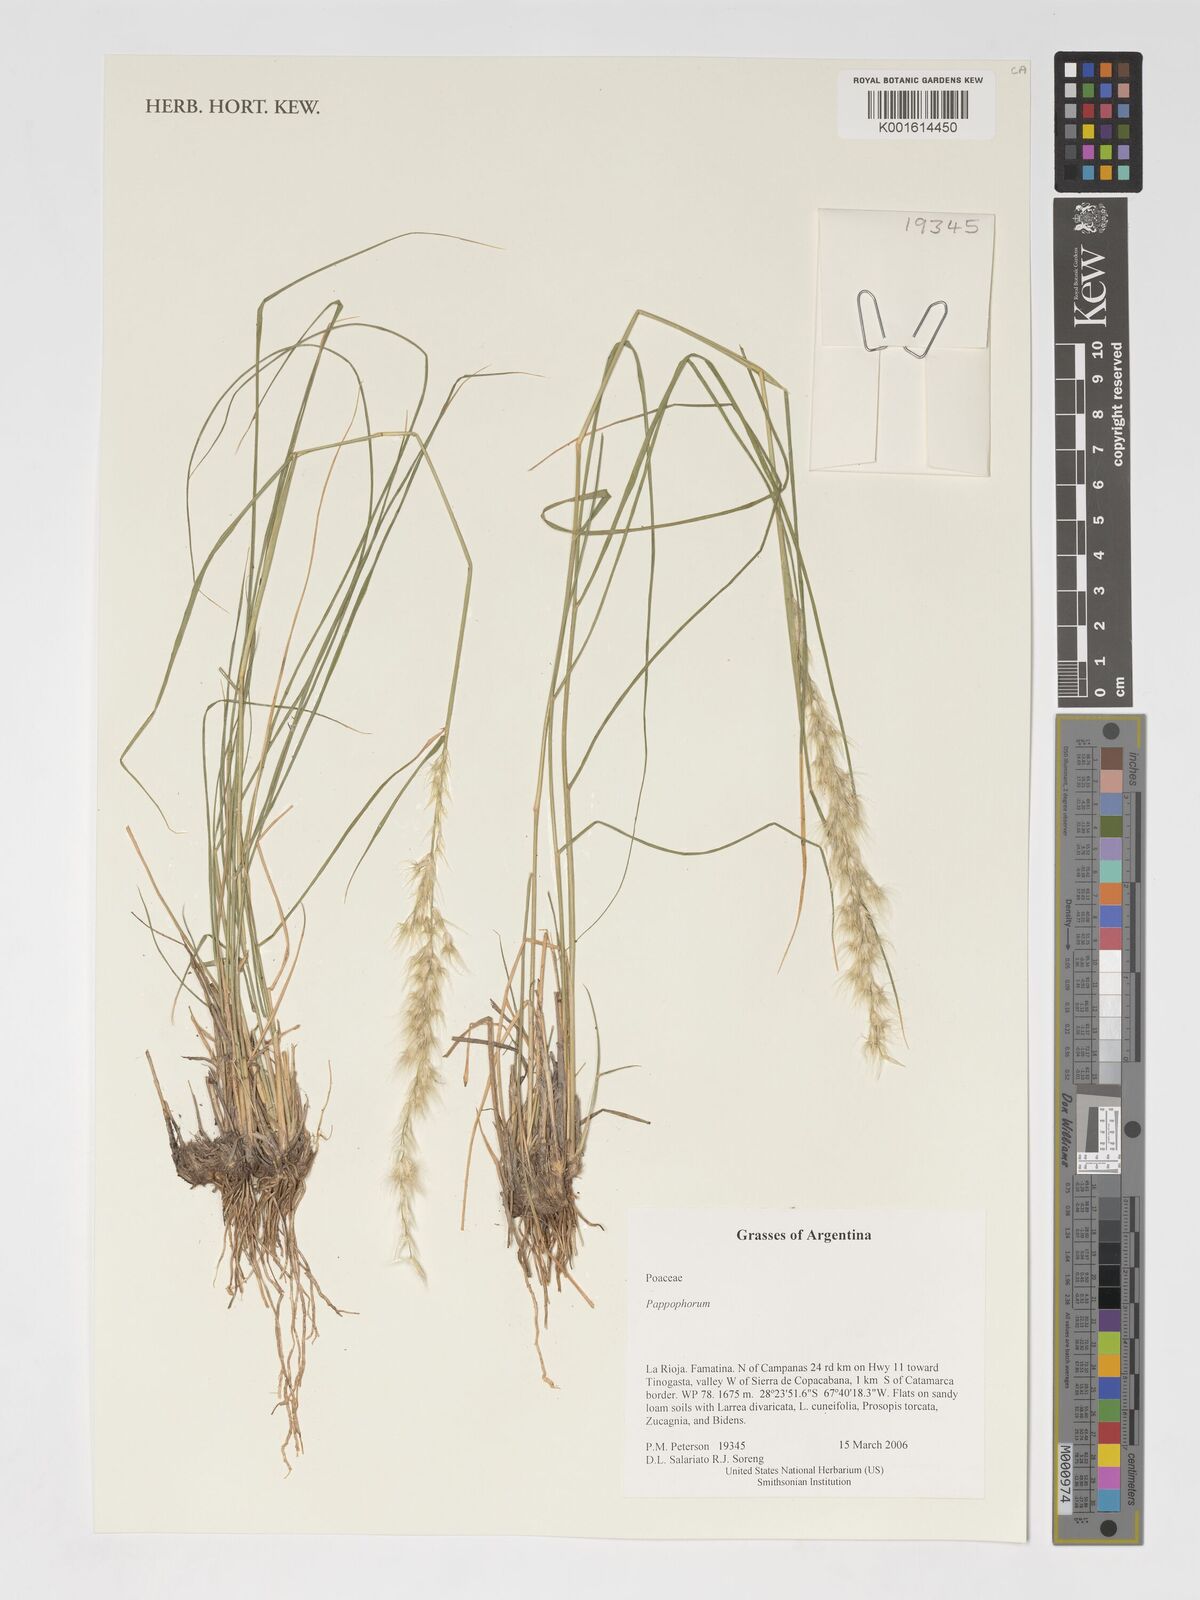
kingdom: Plantae
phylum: Tracheophyta
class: Liliopsida
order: Poales
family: Poaceae
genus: Pappophorum
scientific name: Pappophorum
